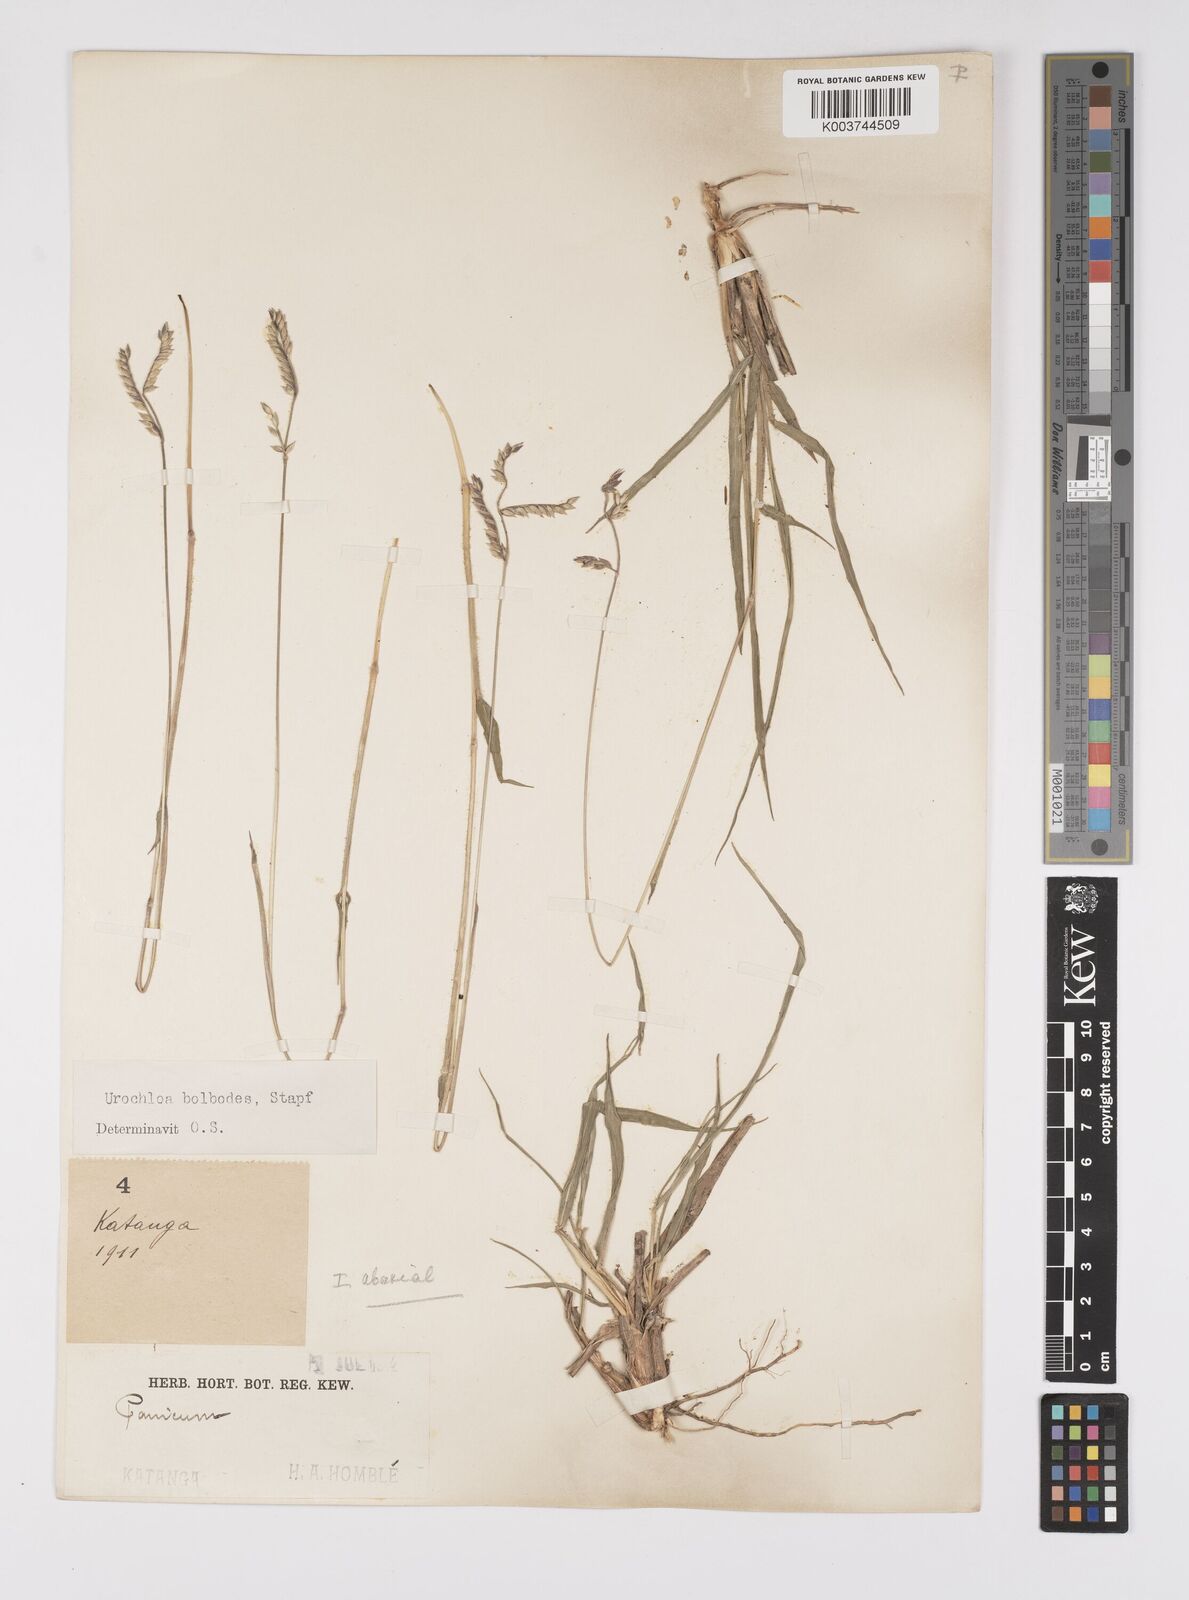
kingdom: Plantae
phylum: Tracheophyta
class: Liliopsida
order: Poales
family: Poaceae
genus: Urochloa
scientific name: Urochloa oligotricha
